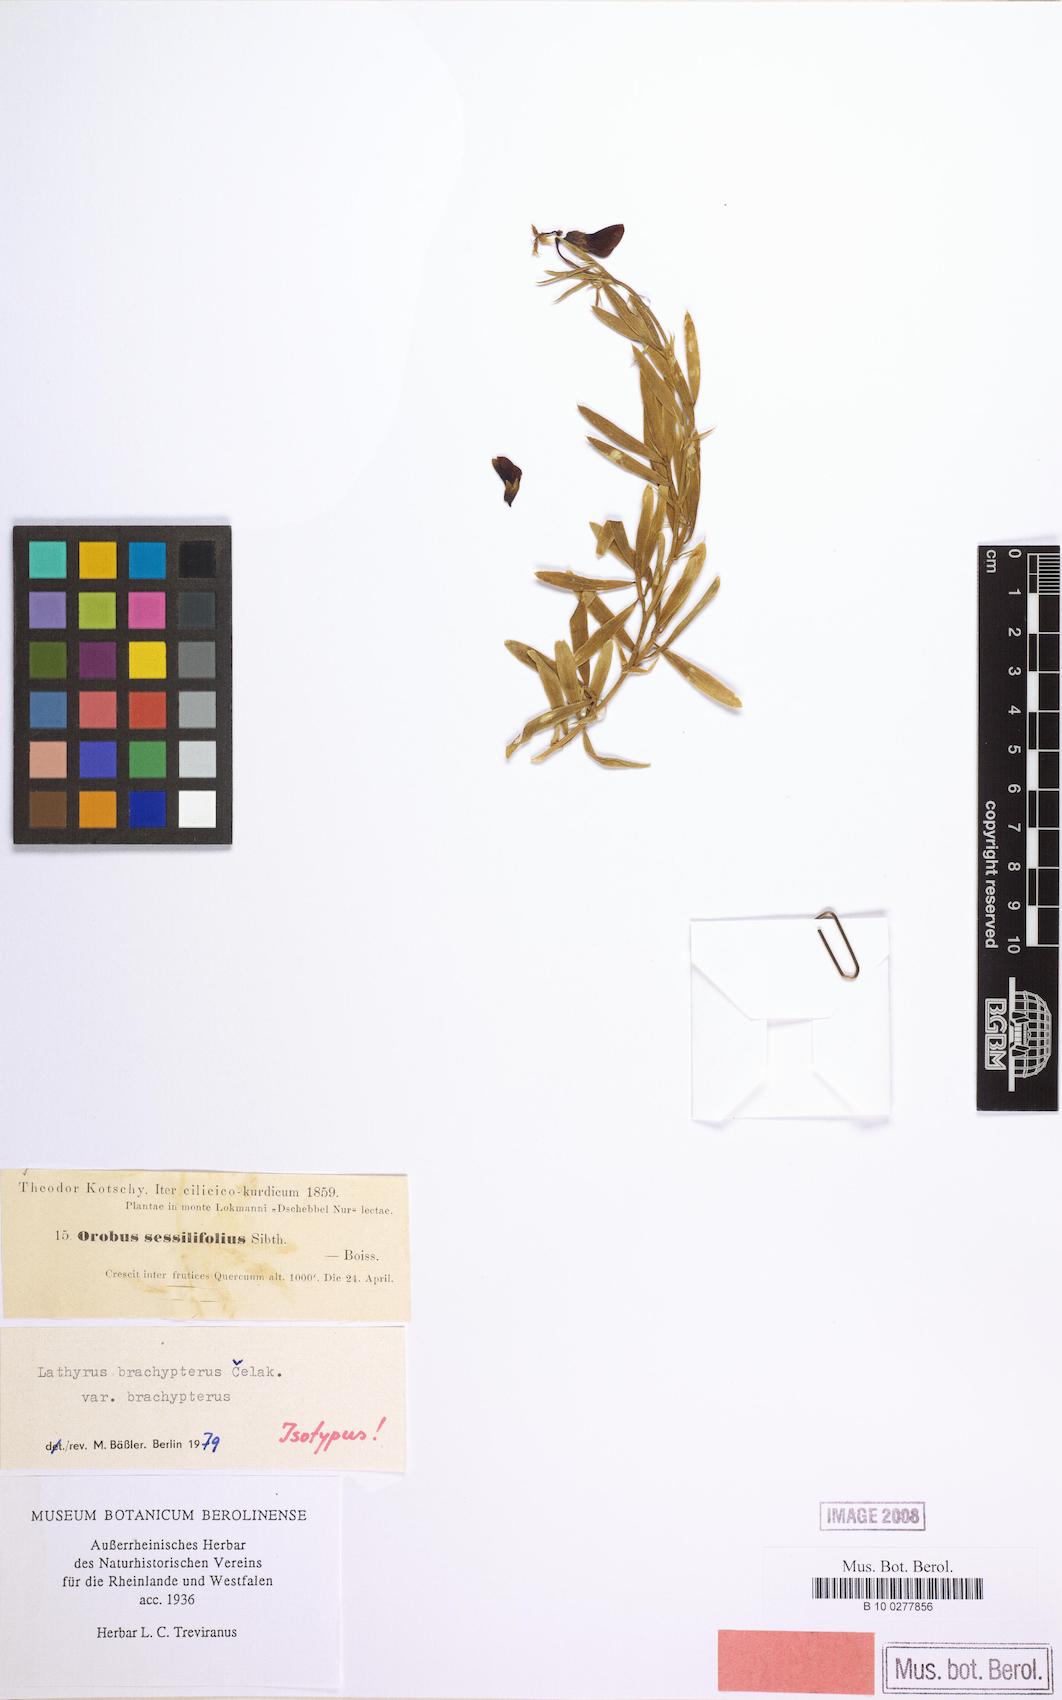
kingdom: Plantae
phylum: Tracheophyta
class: Magnoliopsida
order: Fabales
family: Fabaceae
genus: Lathyrus
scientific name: Lathyrus brachypterus
